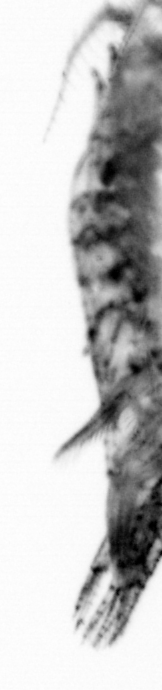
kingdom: Animalia
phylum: Chordata
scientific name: Chordata
